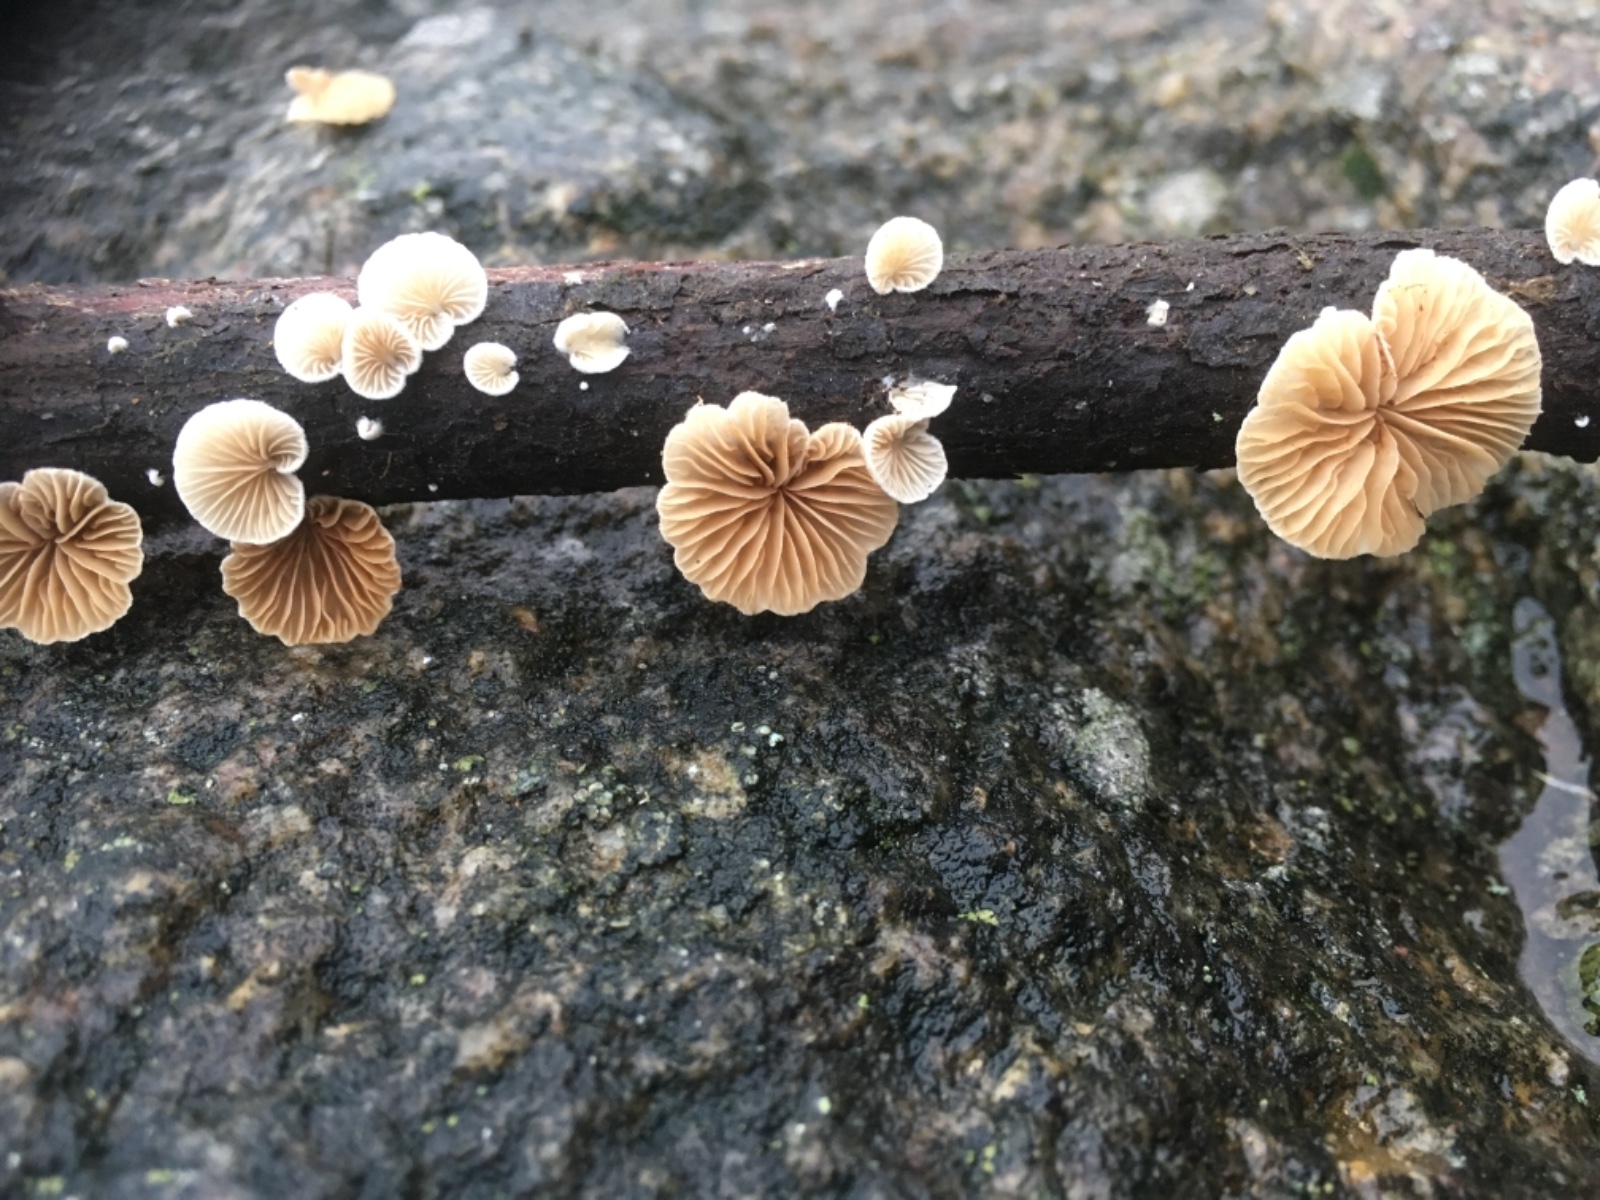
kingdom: Fungi
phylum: Basidiomycota
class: Agaricomycetes
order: Agaricales
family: Crepidotaceae
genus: Crepidotus
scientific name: Crepidotus
